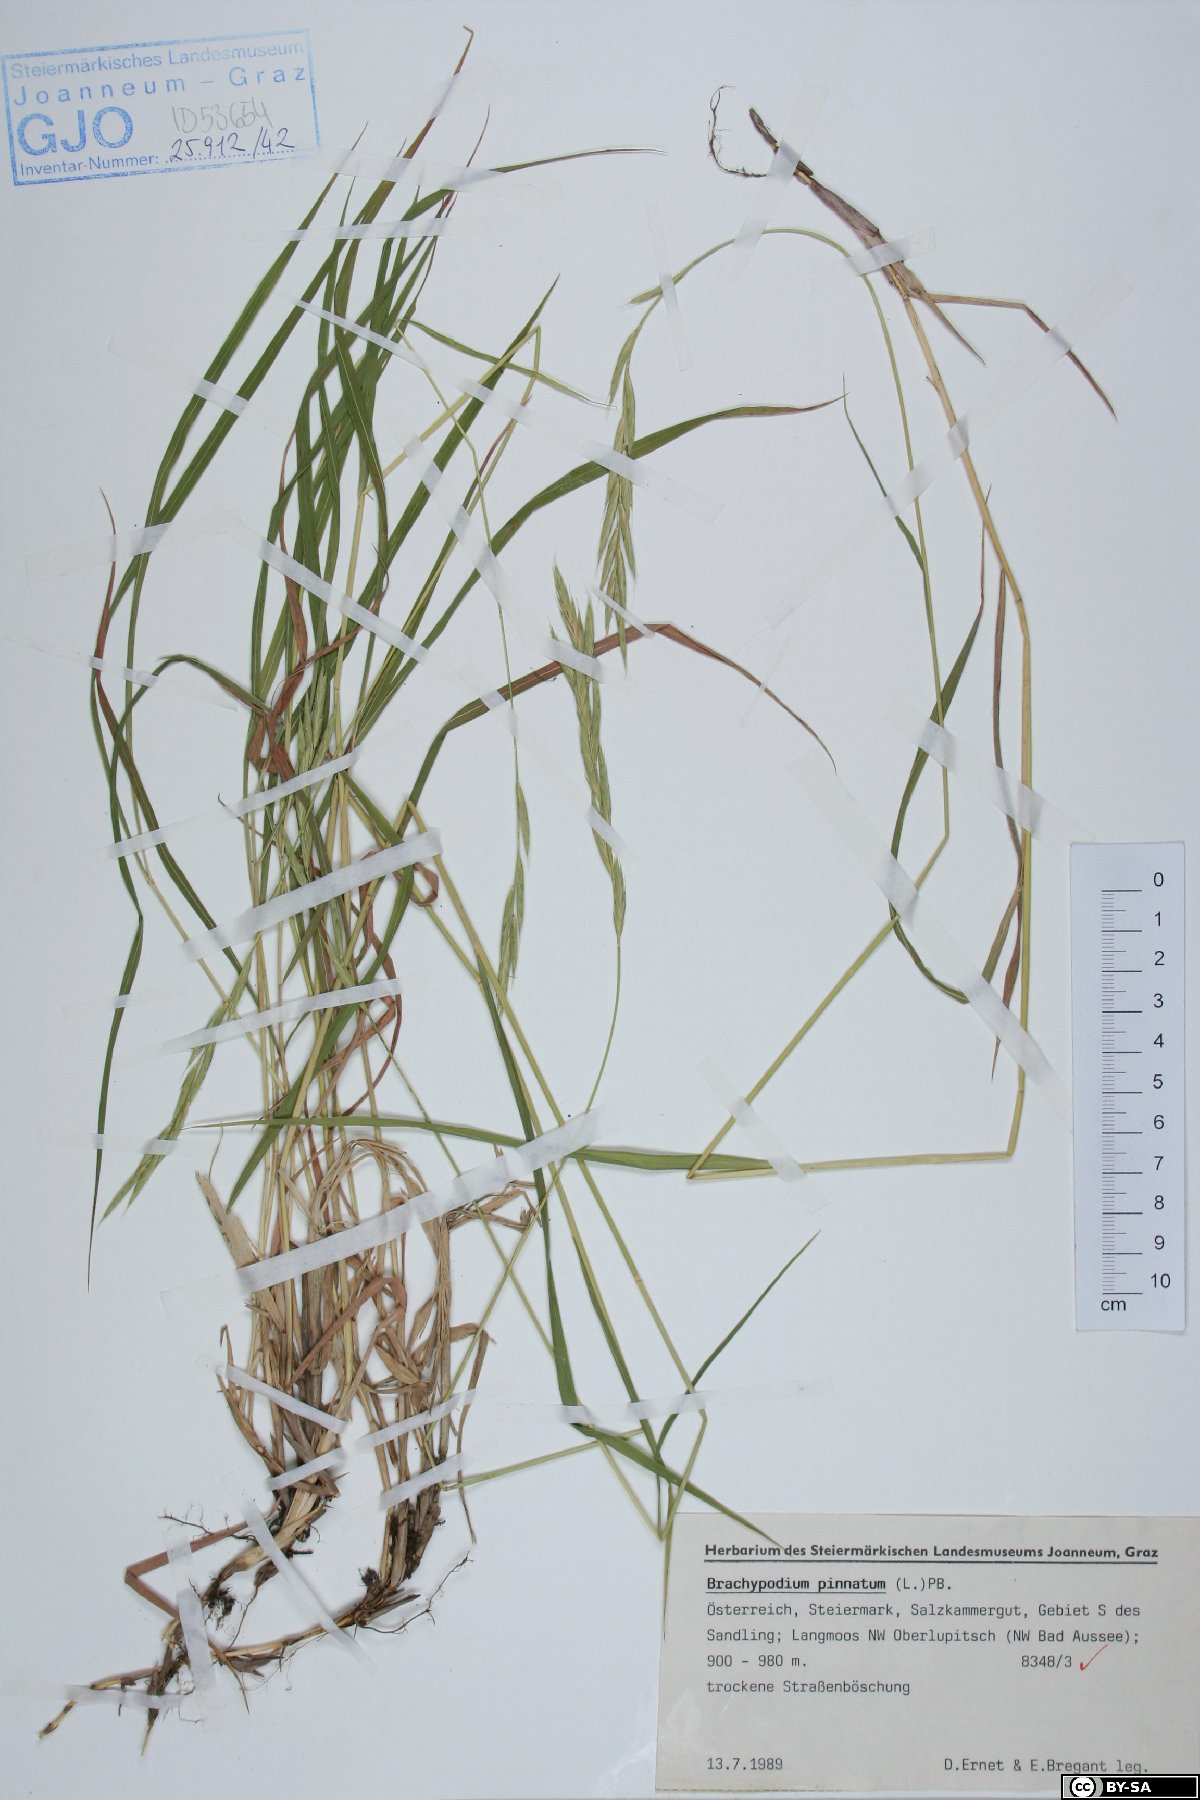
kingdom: Plantae
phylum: Tracheophyta
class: Liliopsida
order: Poales
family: Poaceae
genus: Brachypodium
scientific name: Brachypodium pinnatum
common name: Tor grass
